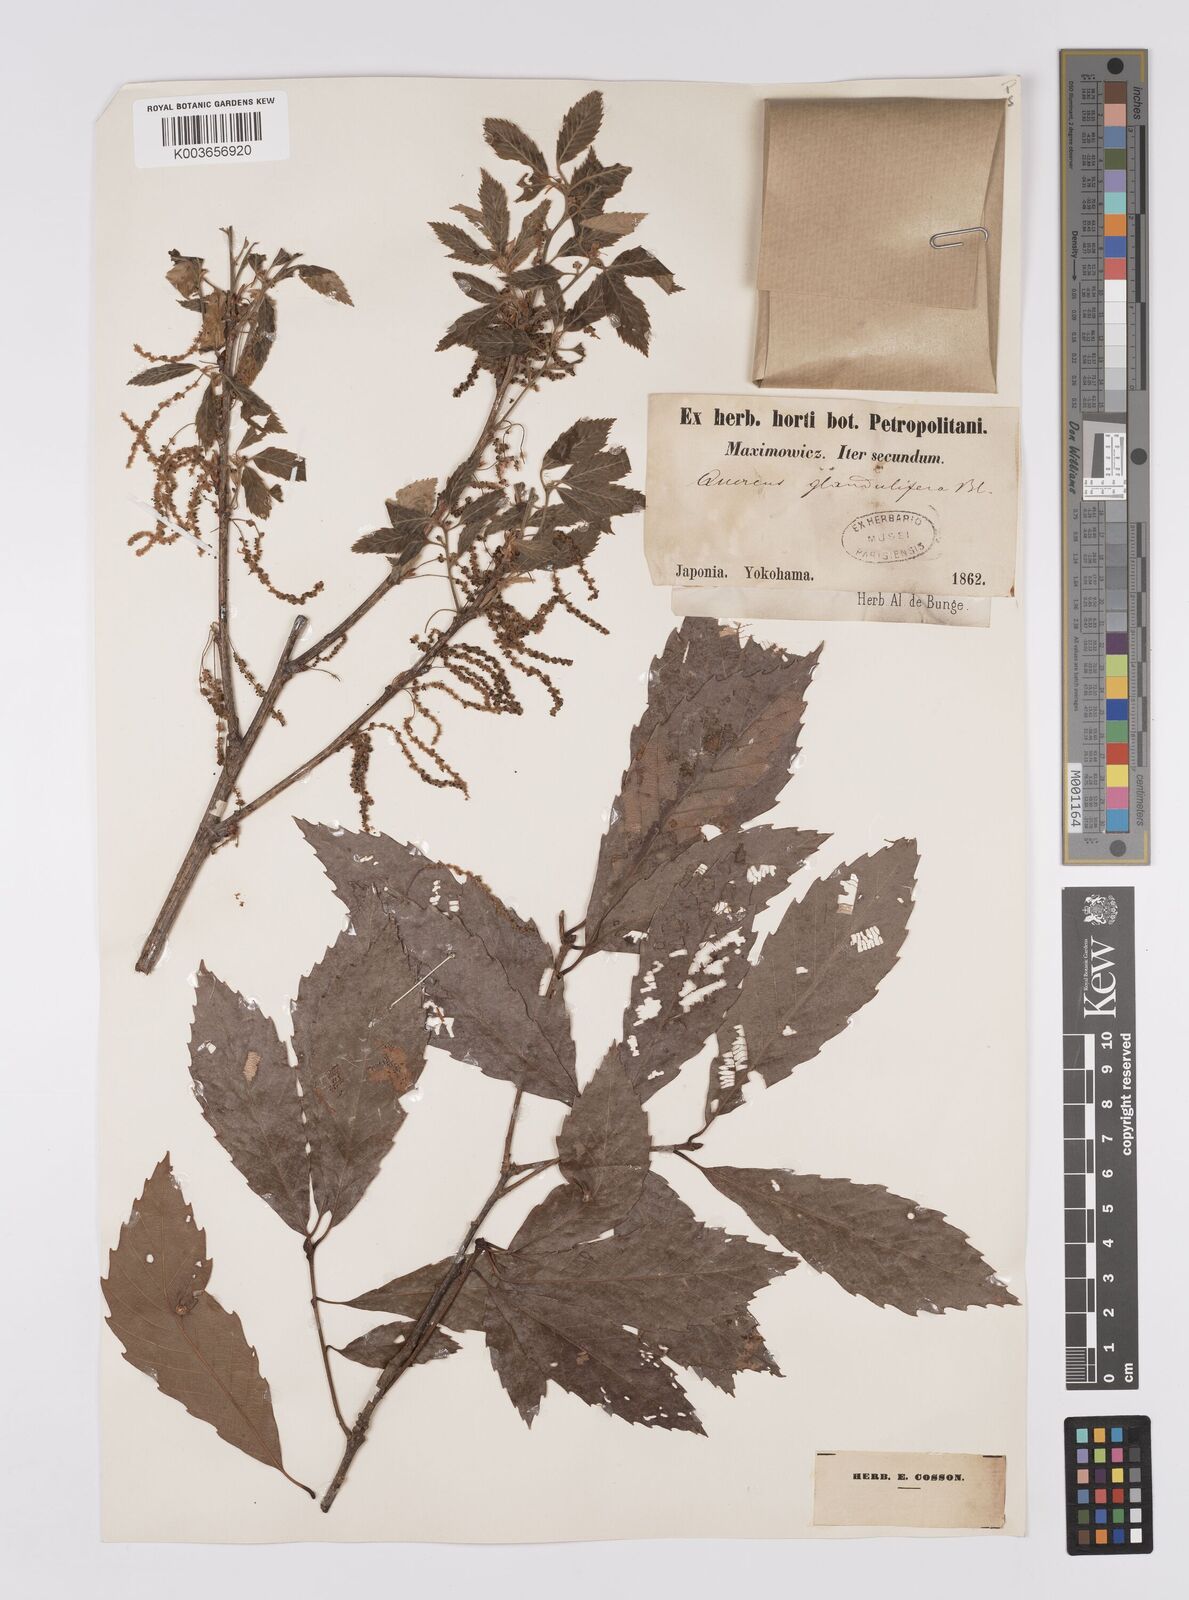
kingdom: Plantae
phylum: Tracheophyta
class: Magnoliopsida
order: Fagales
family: Fagaceae
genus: Quercus
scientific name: Quercus
